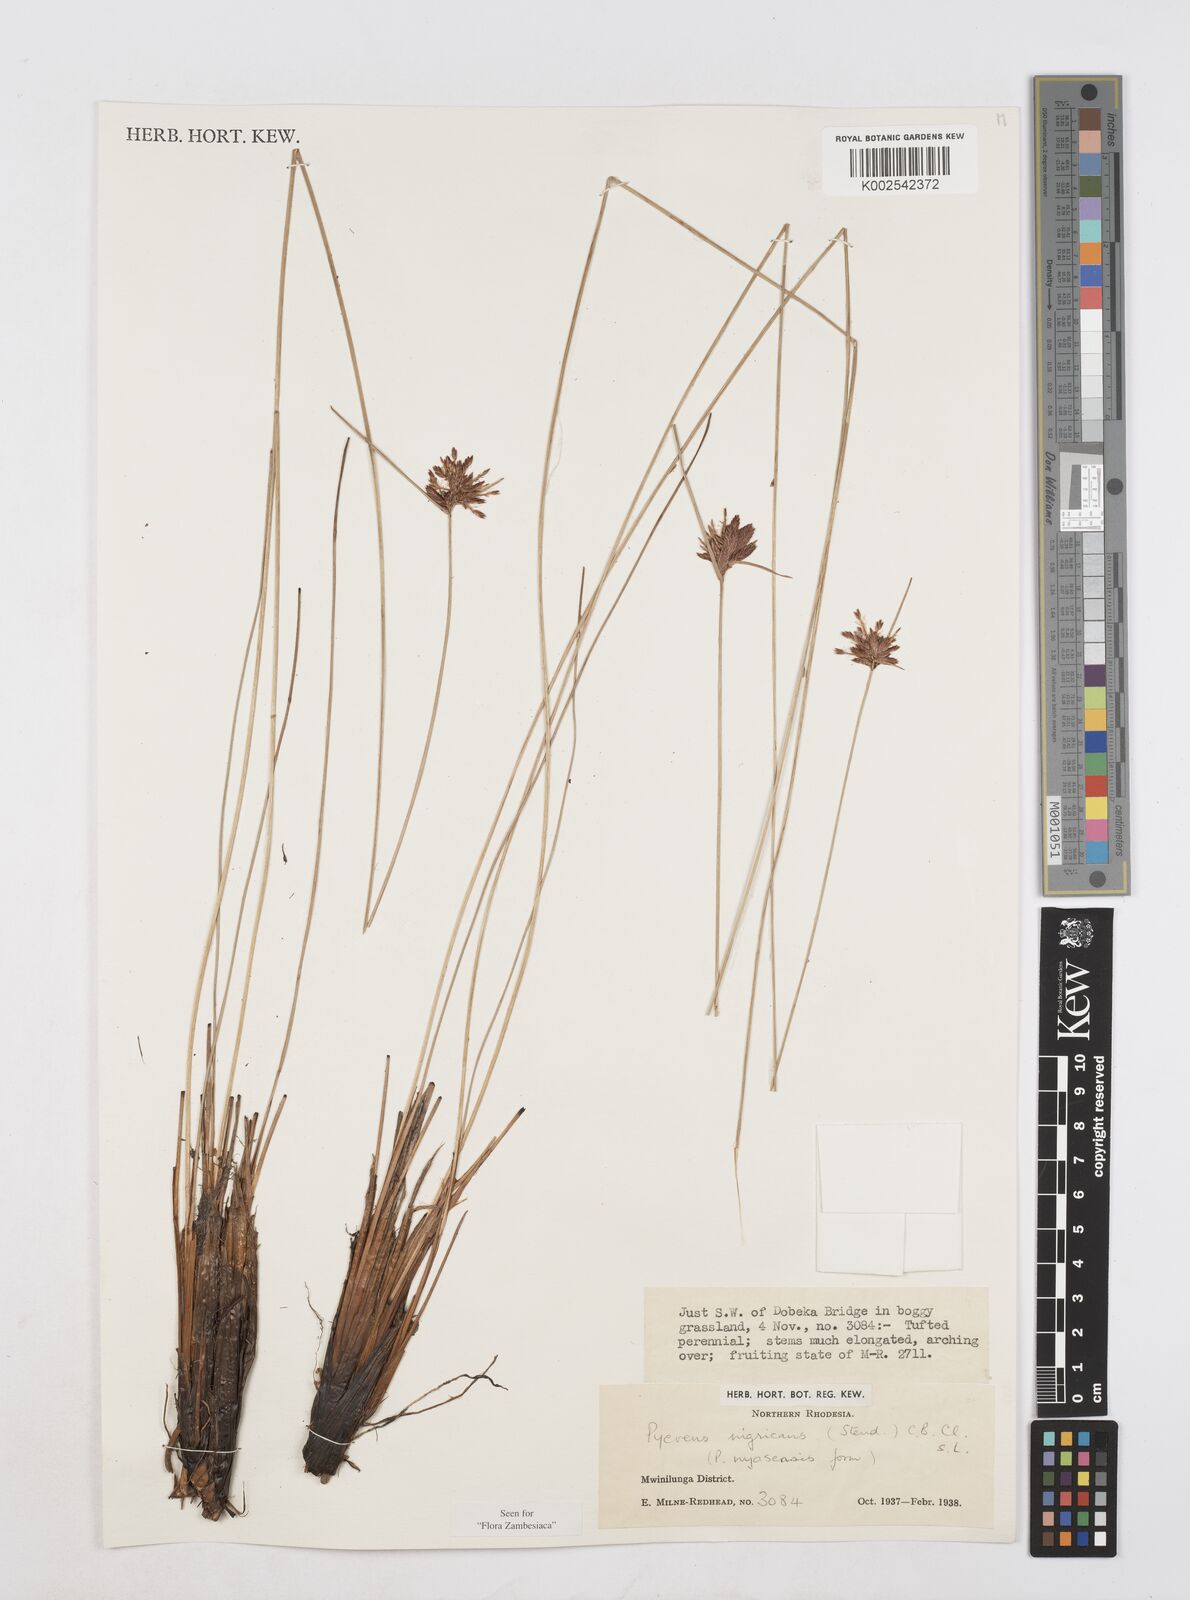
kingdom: Plantae
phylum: Tracheophyta
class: Liliopsida
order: Poales
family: Cyperaceae
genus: Cyperus
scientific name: Cyperus nigricans
